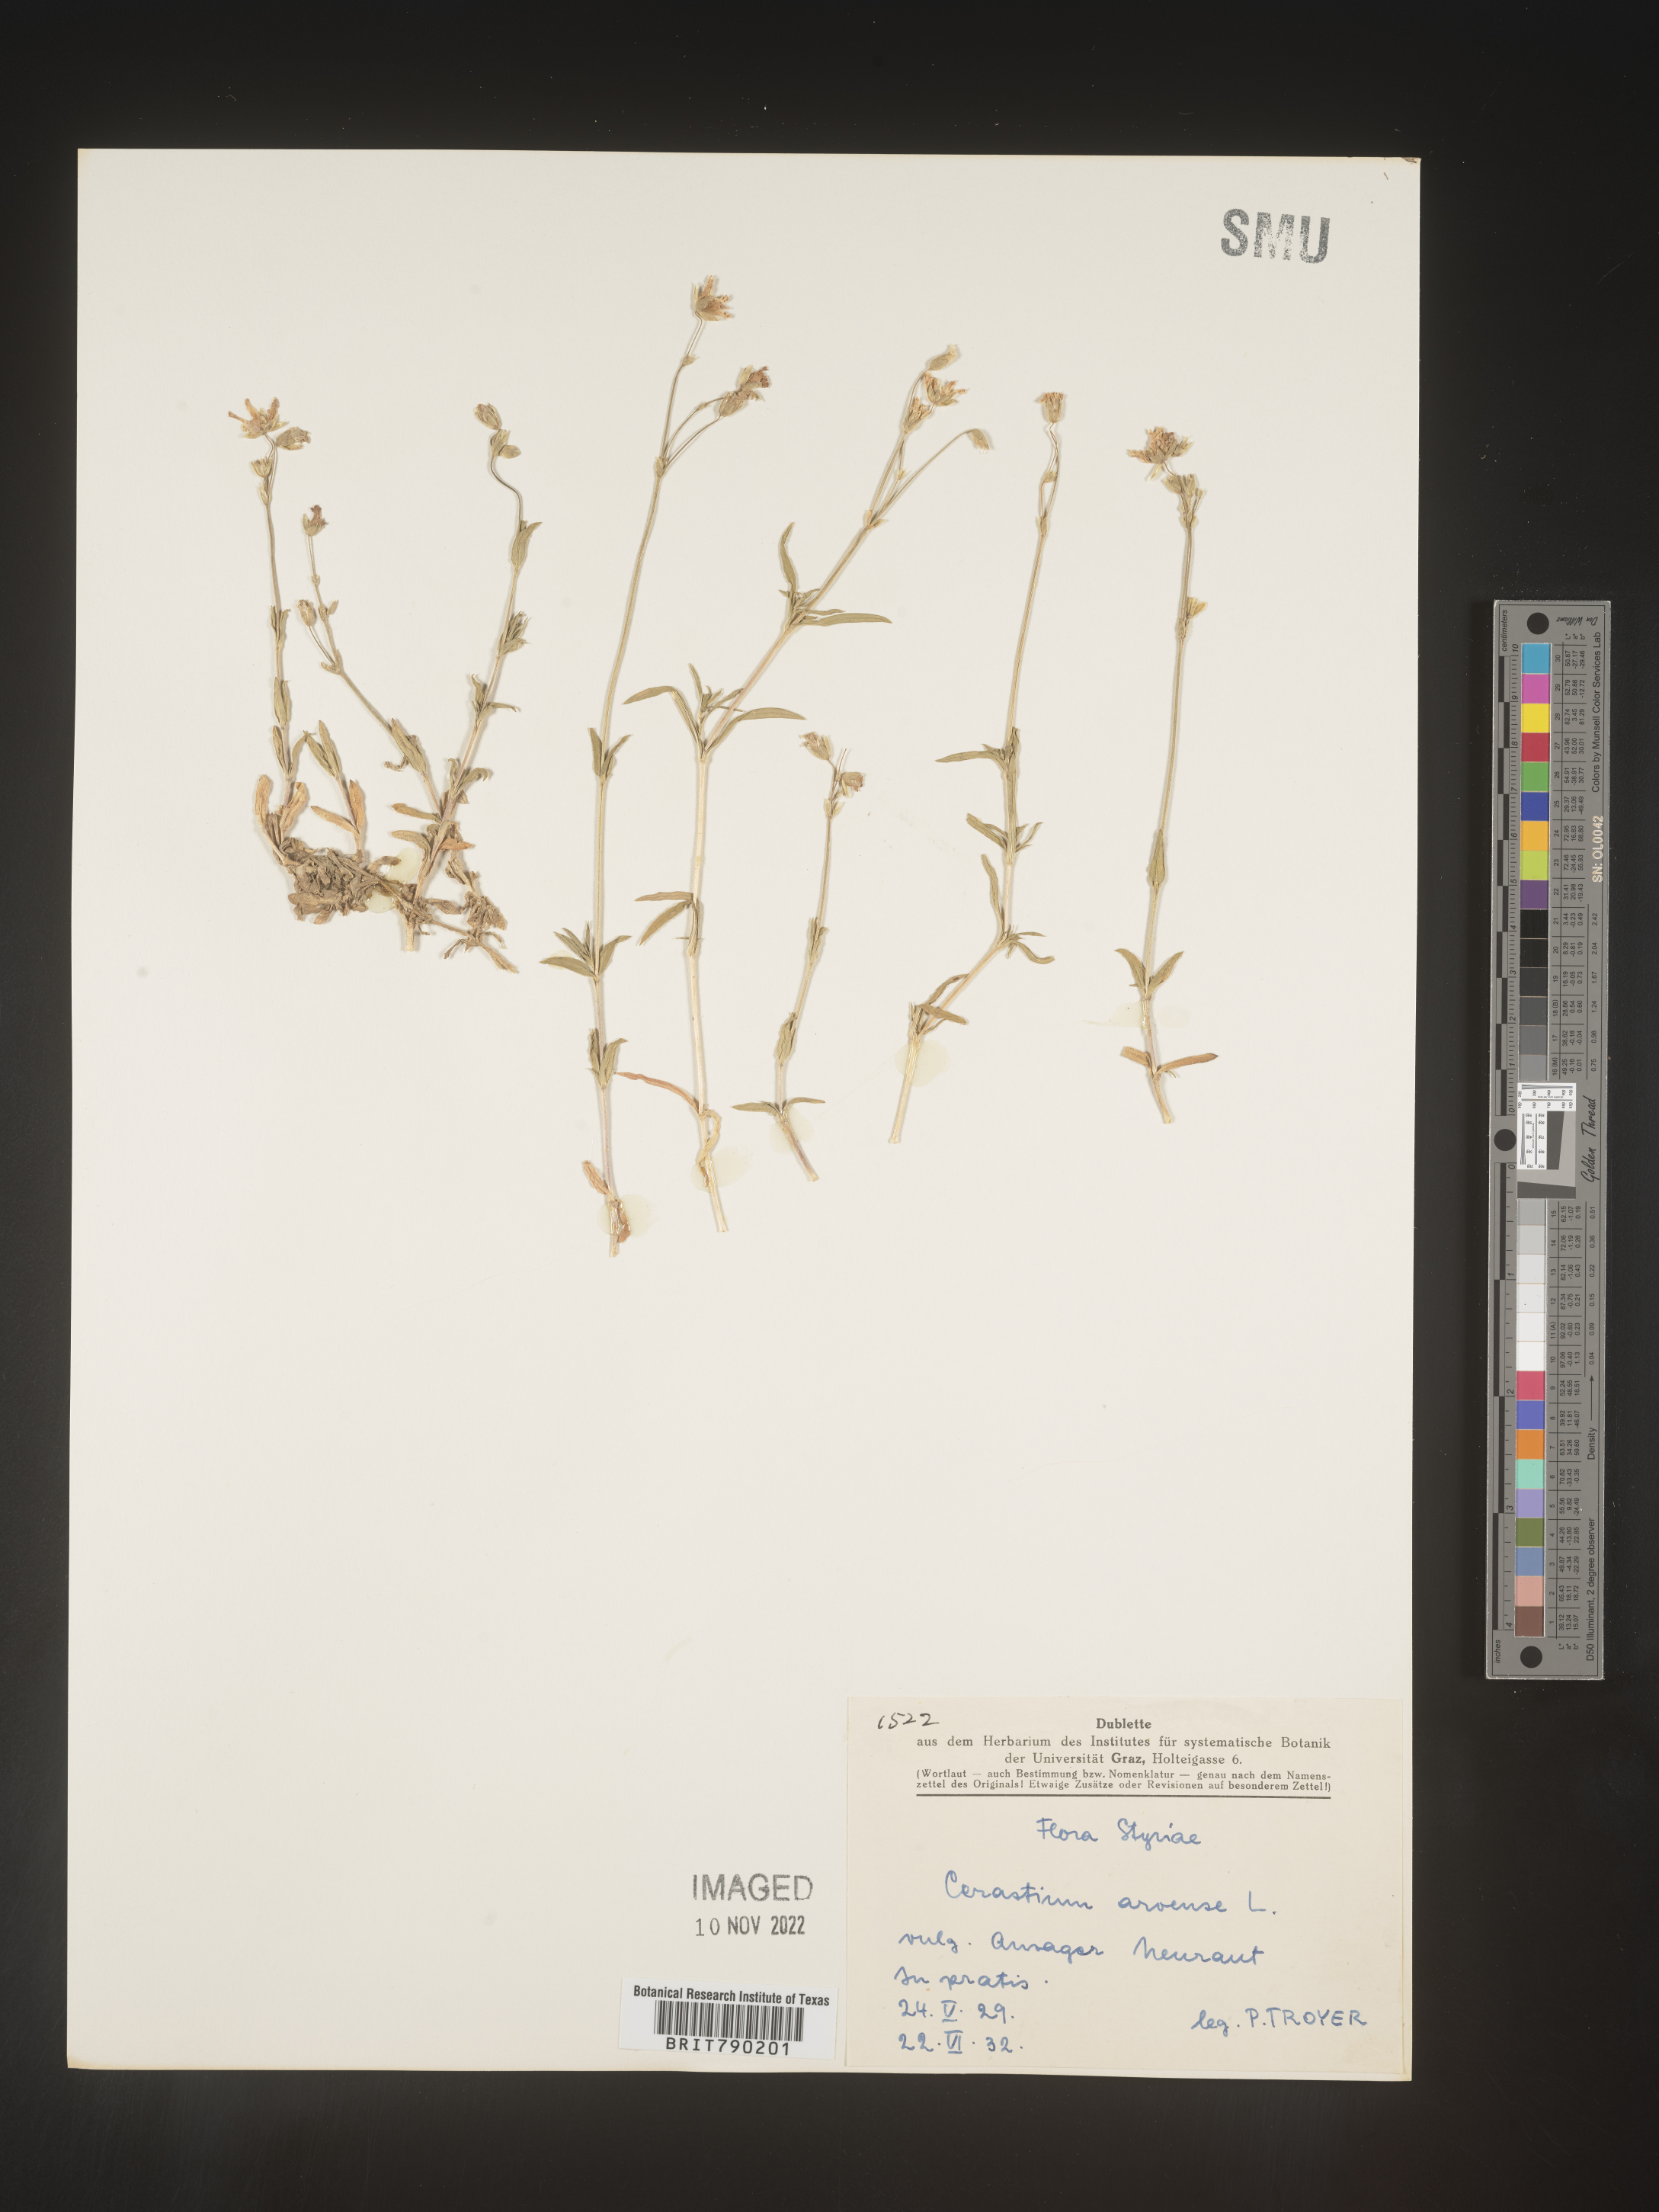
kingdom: Plantae
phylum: Tracheophyta
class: Magnoliopsida
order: Caryophyllales
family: Caryophyllaceae
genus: Cerastium
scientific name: Cerastium
